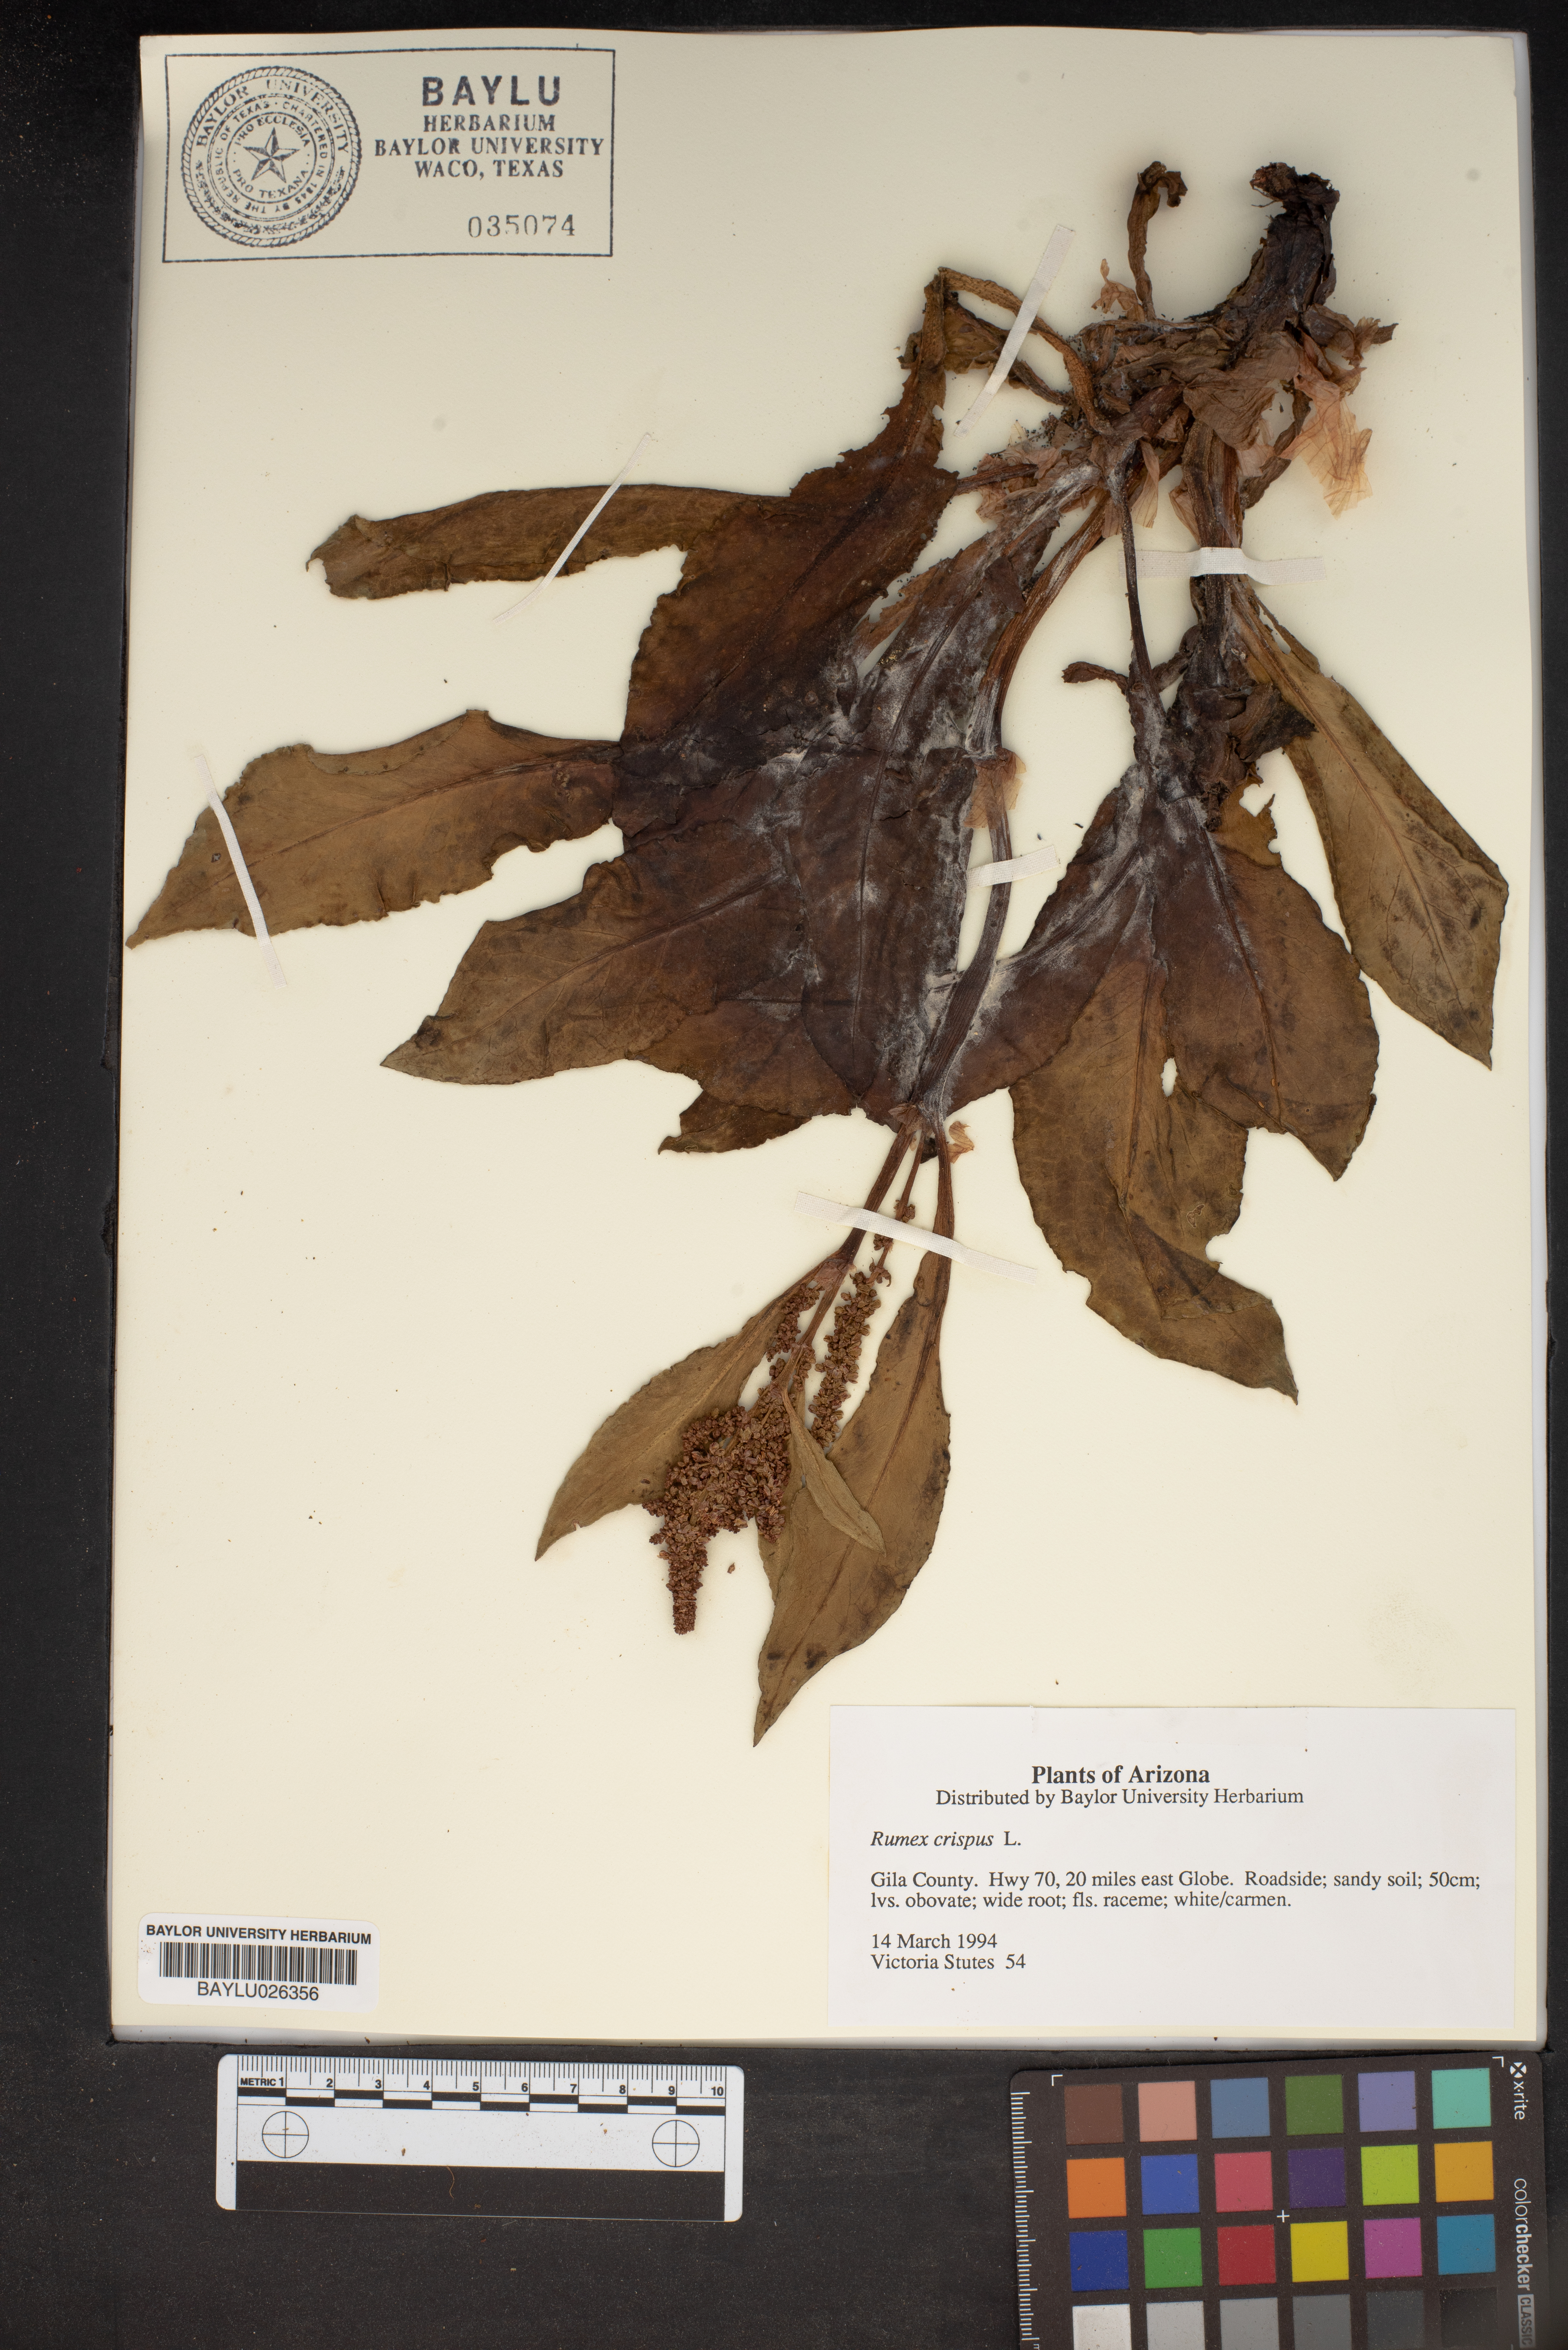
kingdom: Plantae
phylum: Tracheophyta
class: Magnoliopsida
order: Caryophyllales
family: Polygonaceae
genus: Rumex
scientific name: Rumex crispus
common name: Curled dock
